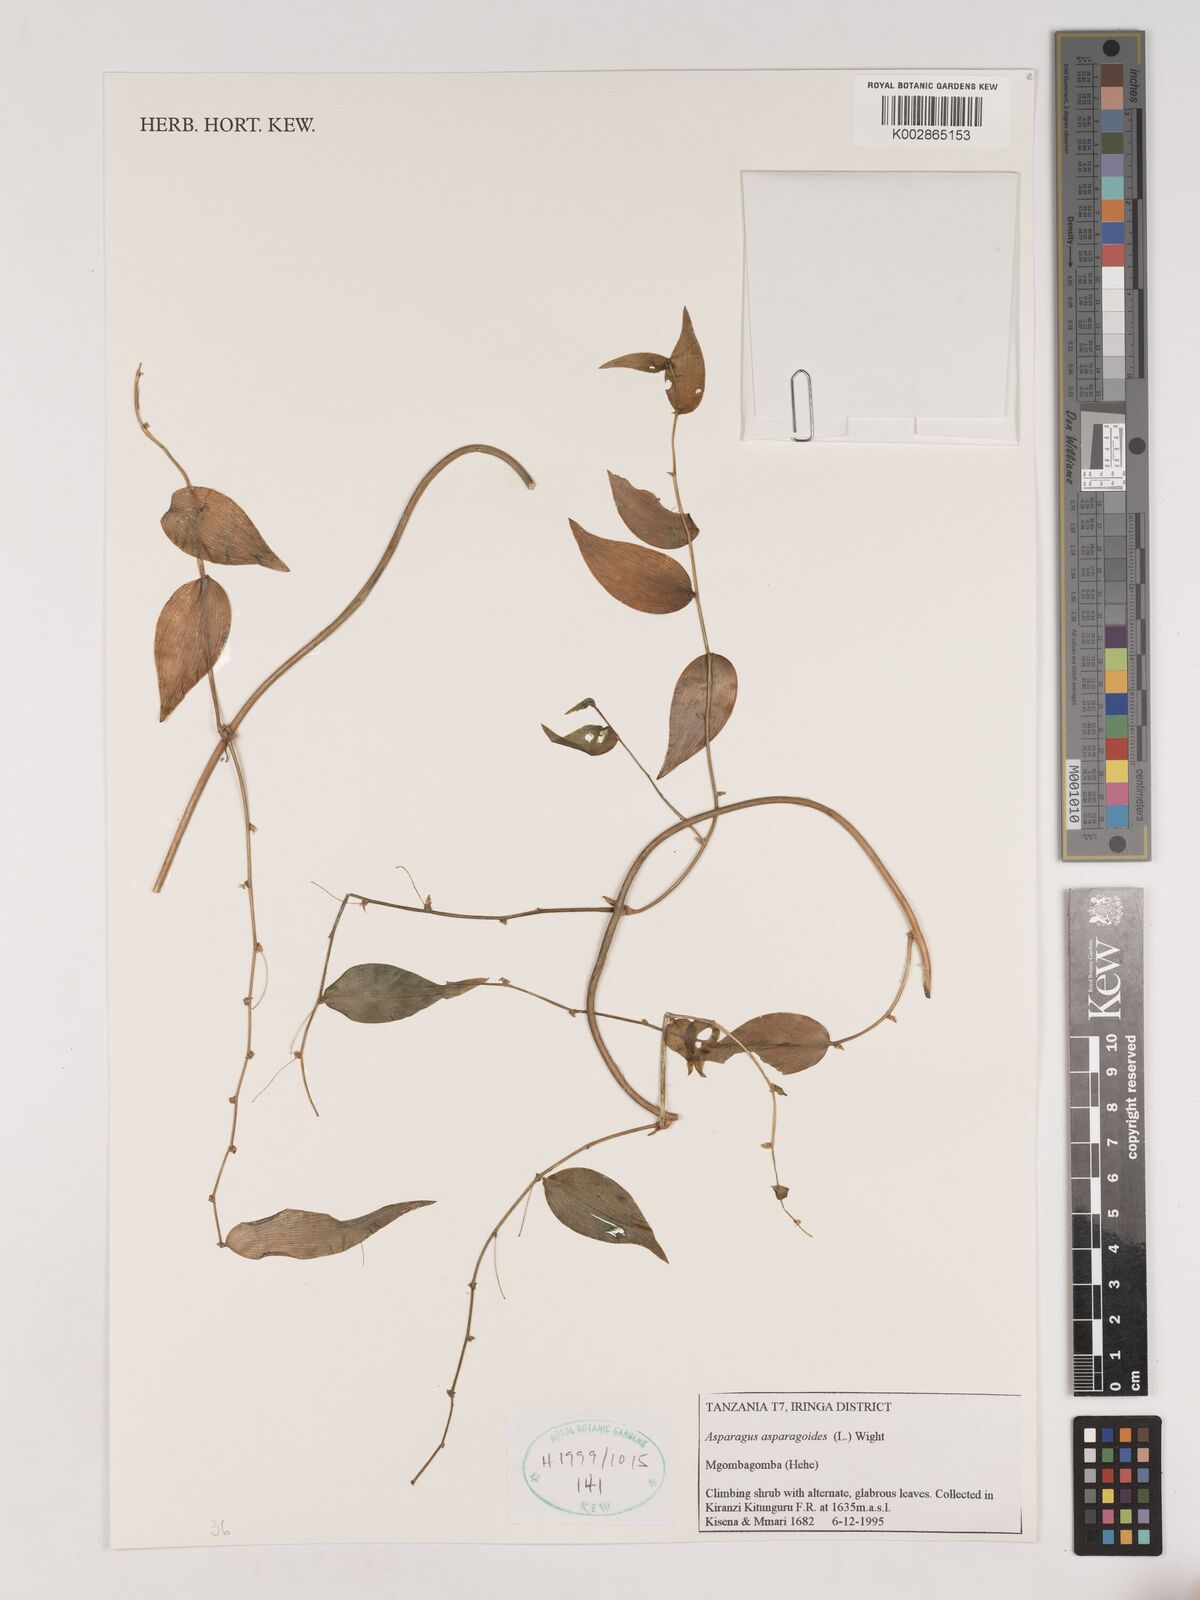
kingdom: Plantae
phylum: Tracheophyta
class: Liliopsida
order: Asparagales
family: Asparagaceae
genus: Asparagus
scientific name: Asparagus asparagoides
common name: African asparagus fern
